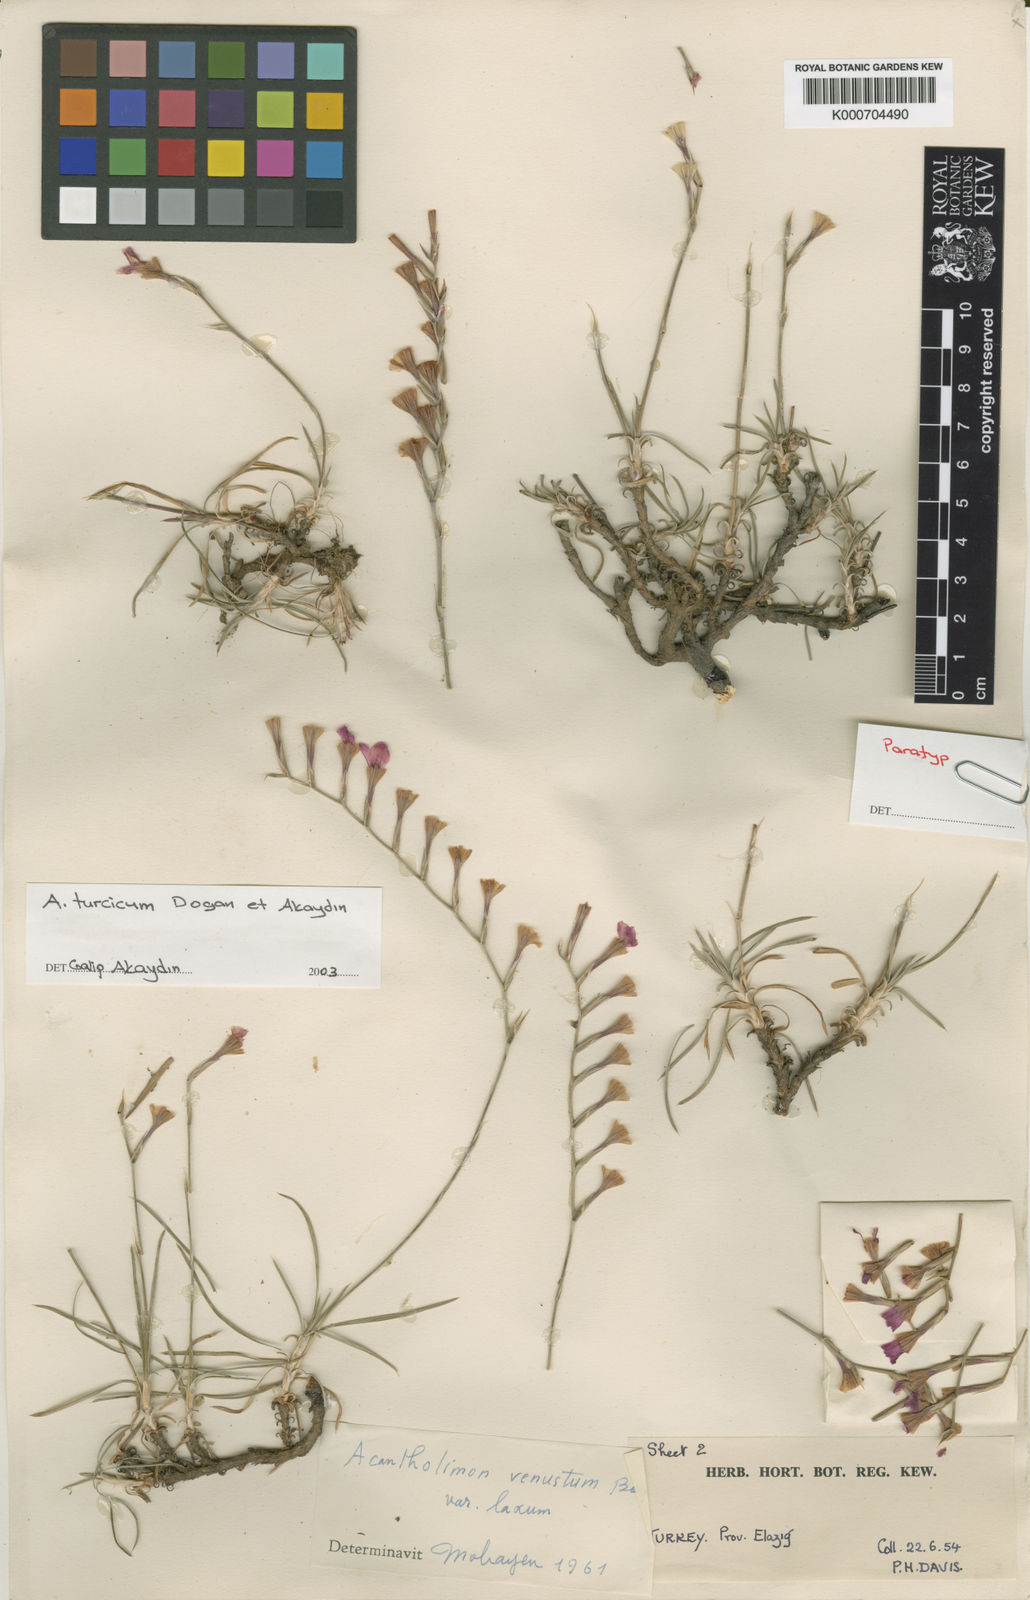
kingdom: Plantae
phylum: Tracheophyta
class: Magnoliopsida
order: Caryophyllales
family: Plumbaginaceae
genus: Acantholimon
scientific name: Acantholimon turcicum
